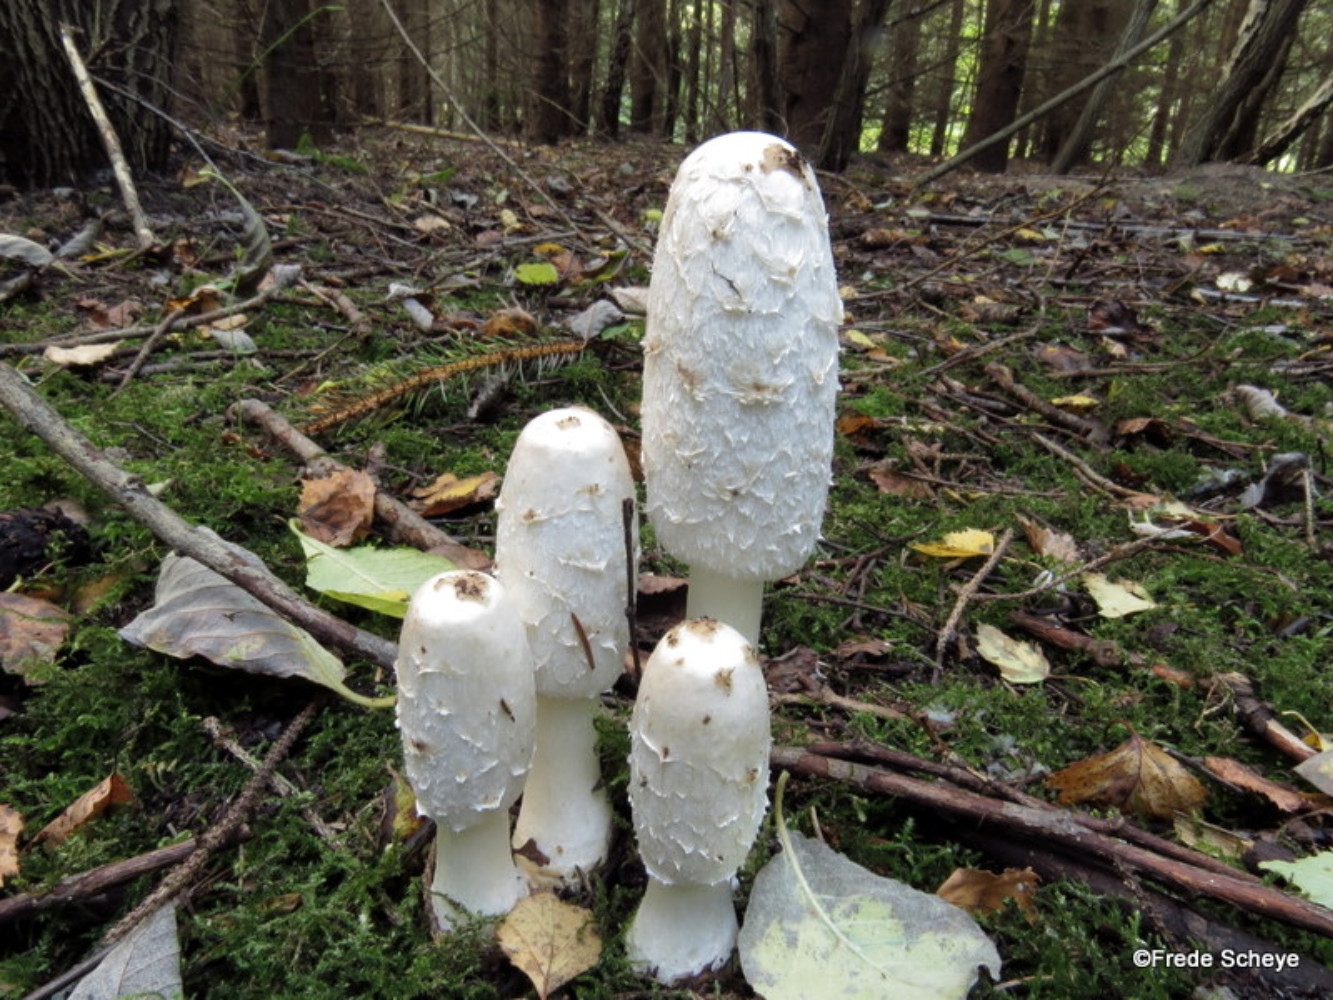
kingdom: Fungi
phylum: Basidiomycota
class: Agaricomycetes
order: Agaricales
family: Agaricaceae
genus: Coprinus
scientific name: Coprinus comatus
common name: stor parykhat
